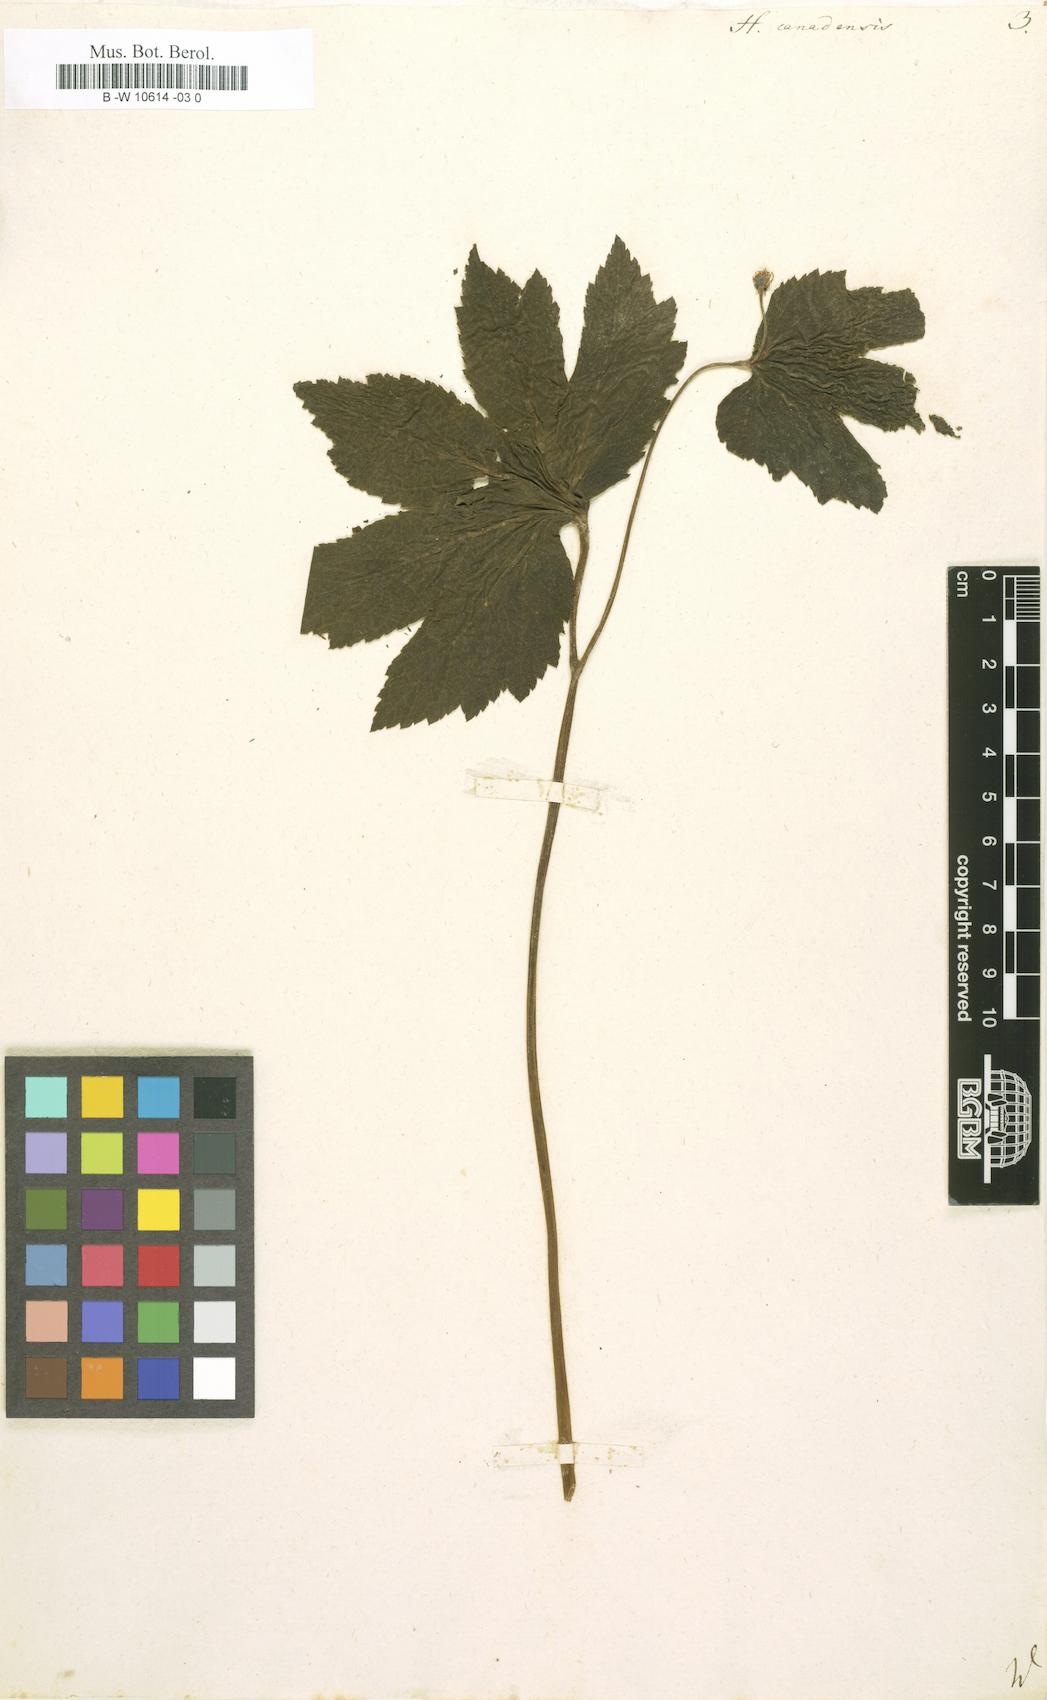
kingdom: Plantae
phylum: Tracheophyta
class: Magnoliopsida
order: Ranunculales
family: Ranunculaceae
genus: Hydrastis
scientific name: Hydrastis canadensis
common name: Goldenseal
